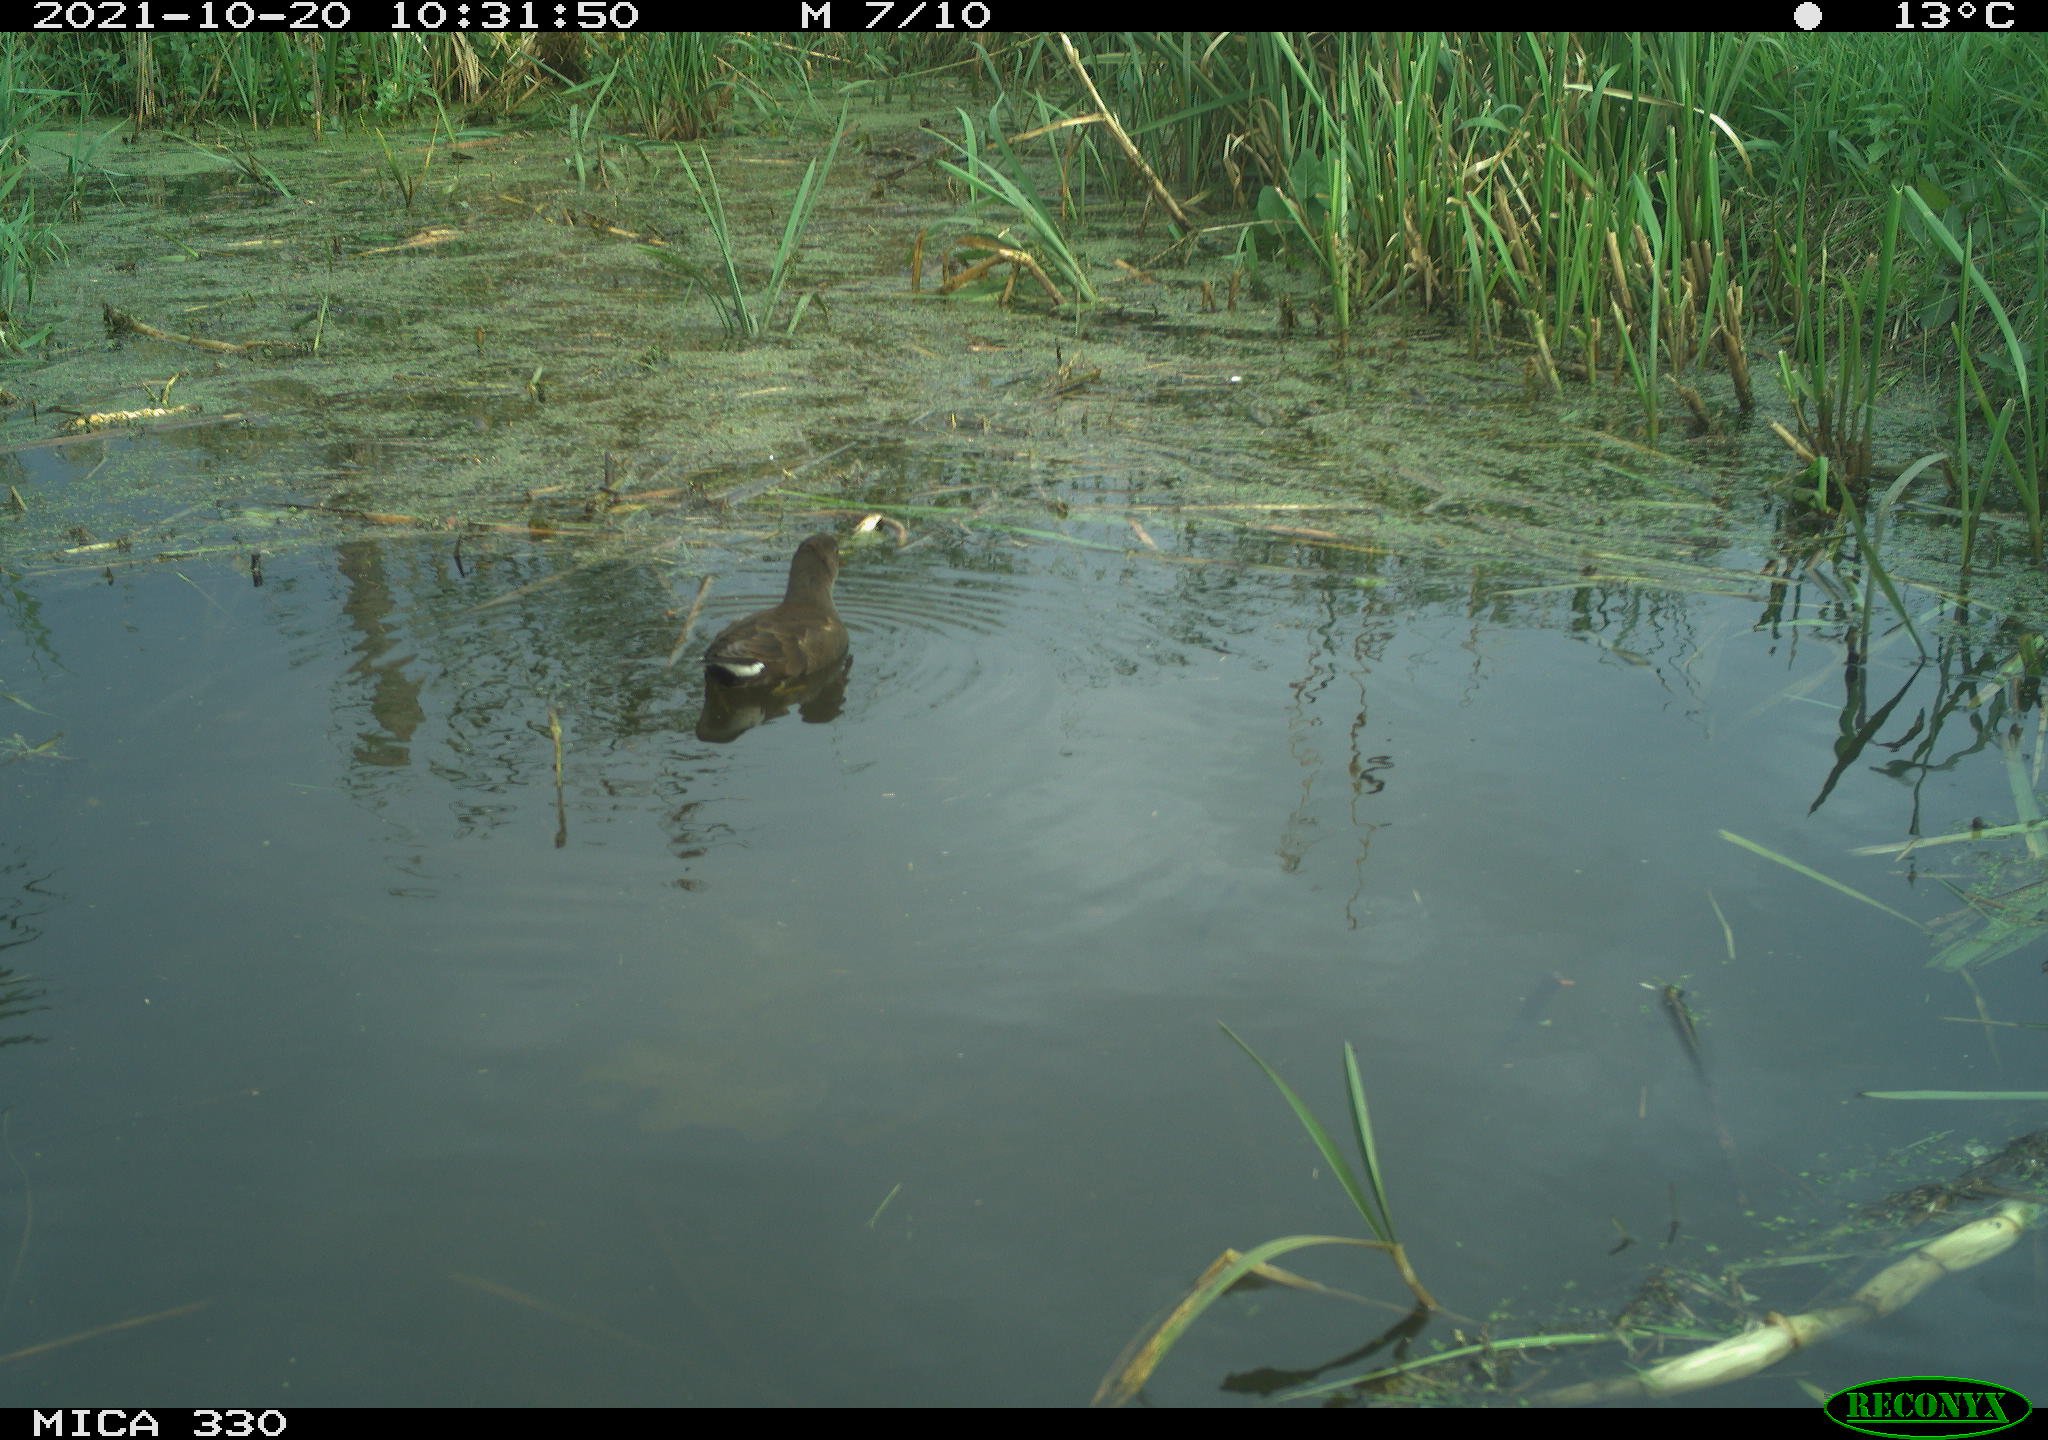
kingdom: Animalia
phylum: Chordata
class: Aves
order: Gruiformes
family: Rallidae
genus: Gallinula
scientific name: Gallinula chloropus
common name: Common moorhen
